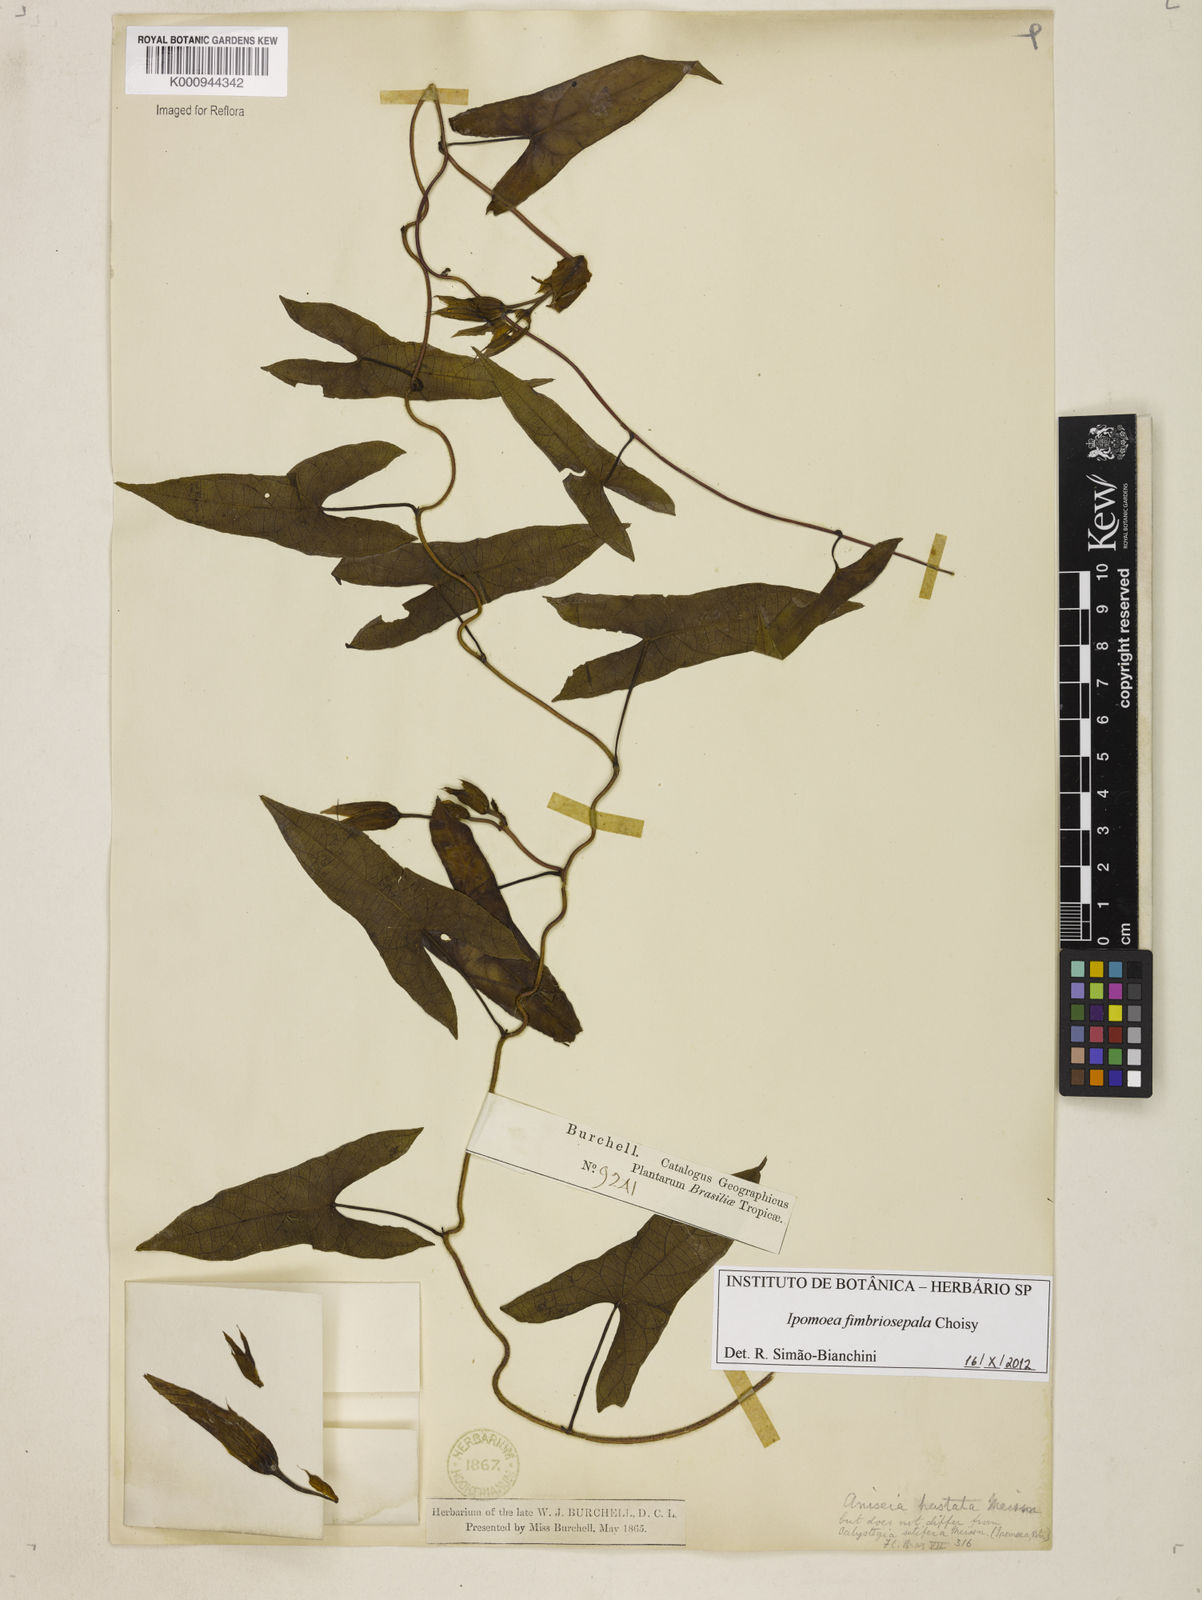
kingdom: Plantae
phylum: Tracheophyta
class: Magnoliopsida
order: Solanales
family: Convolvulaceae
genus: Ipomoea
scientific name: Ipomoea fimbriosepala
